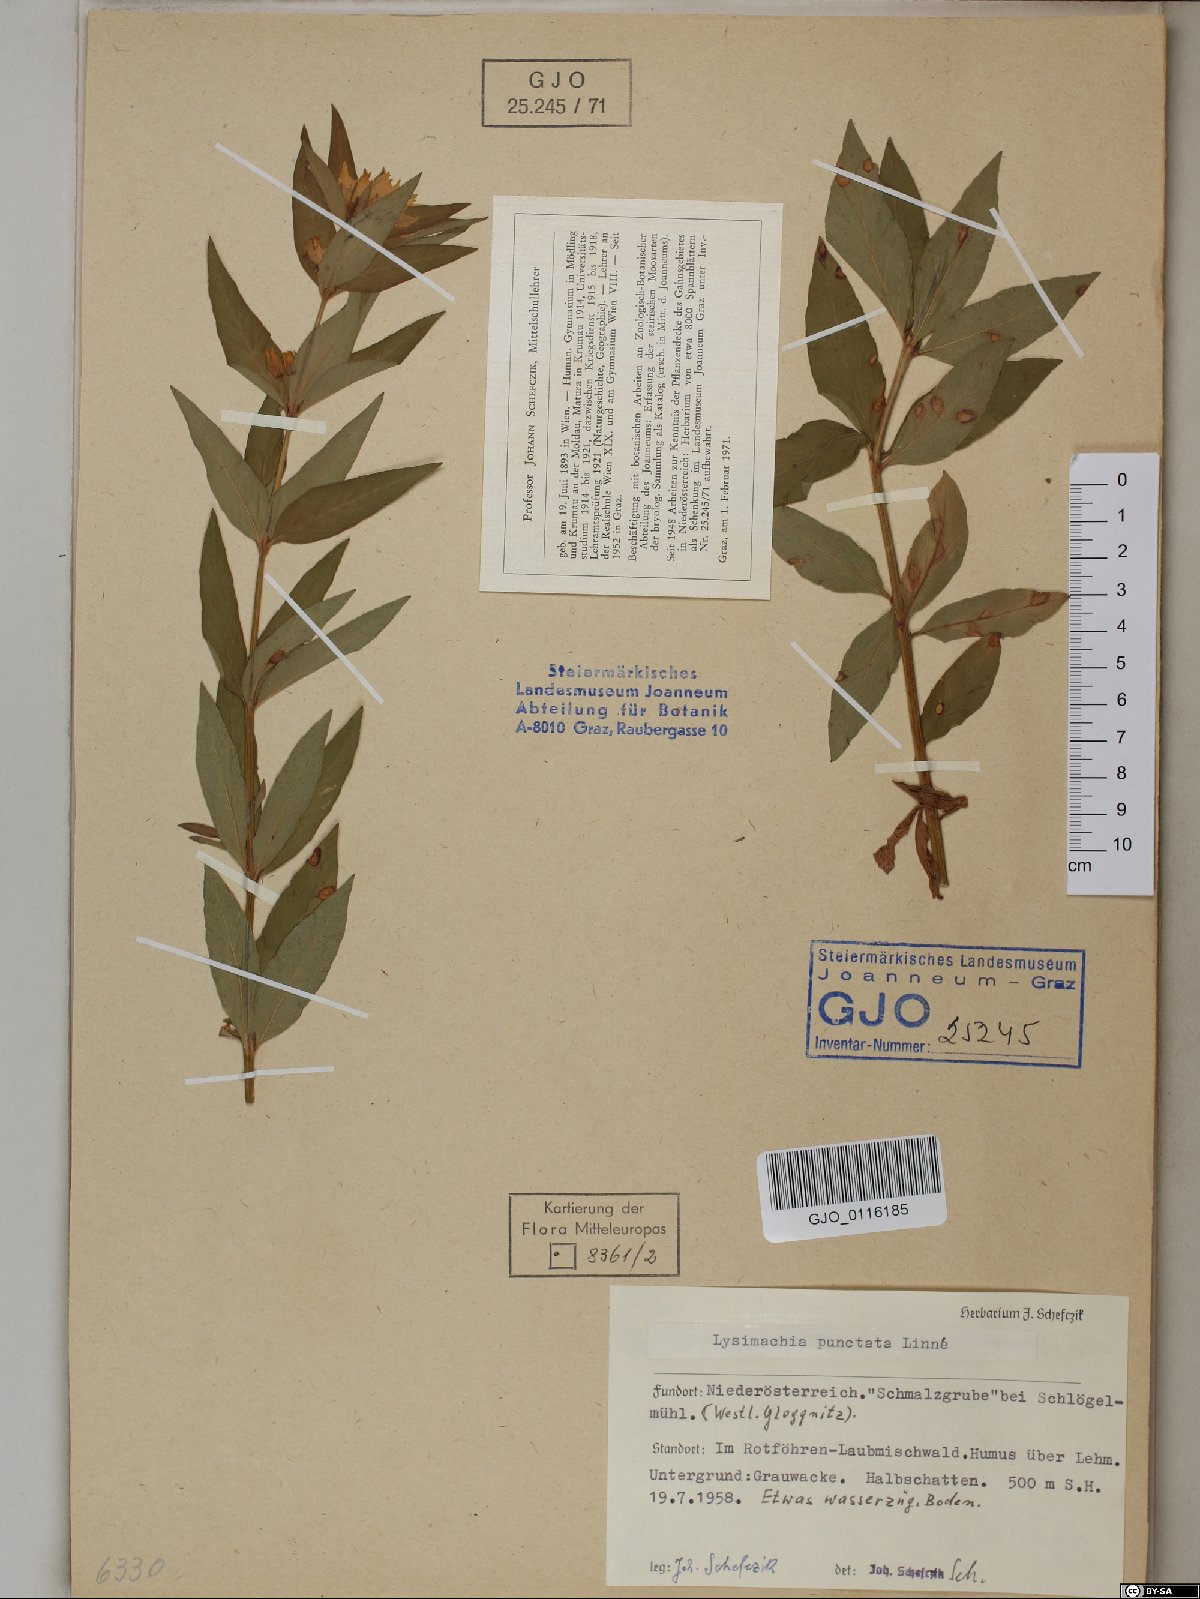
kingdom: Plantae
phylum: Tracheophyta
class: Magnoliopsida
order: Ericales
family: Primulaceae
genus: Lysimachia
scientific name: Lysimachia punctata
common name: Dotted loosestrife
